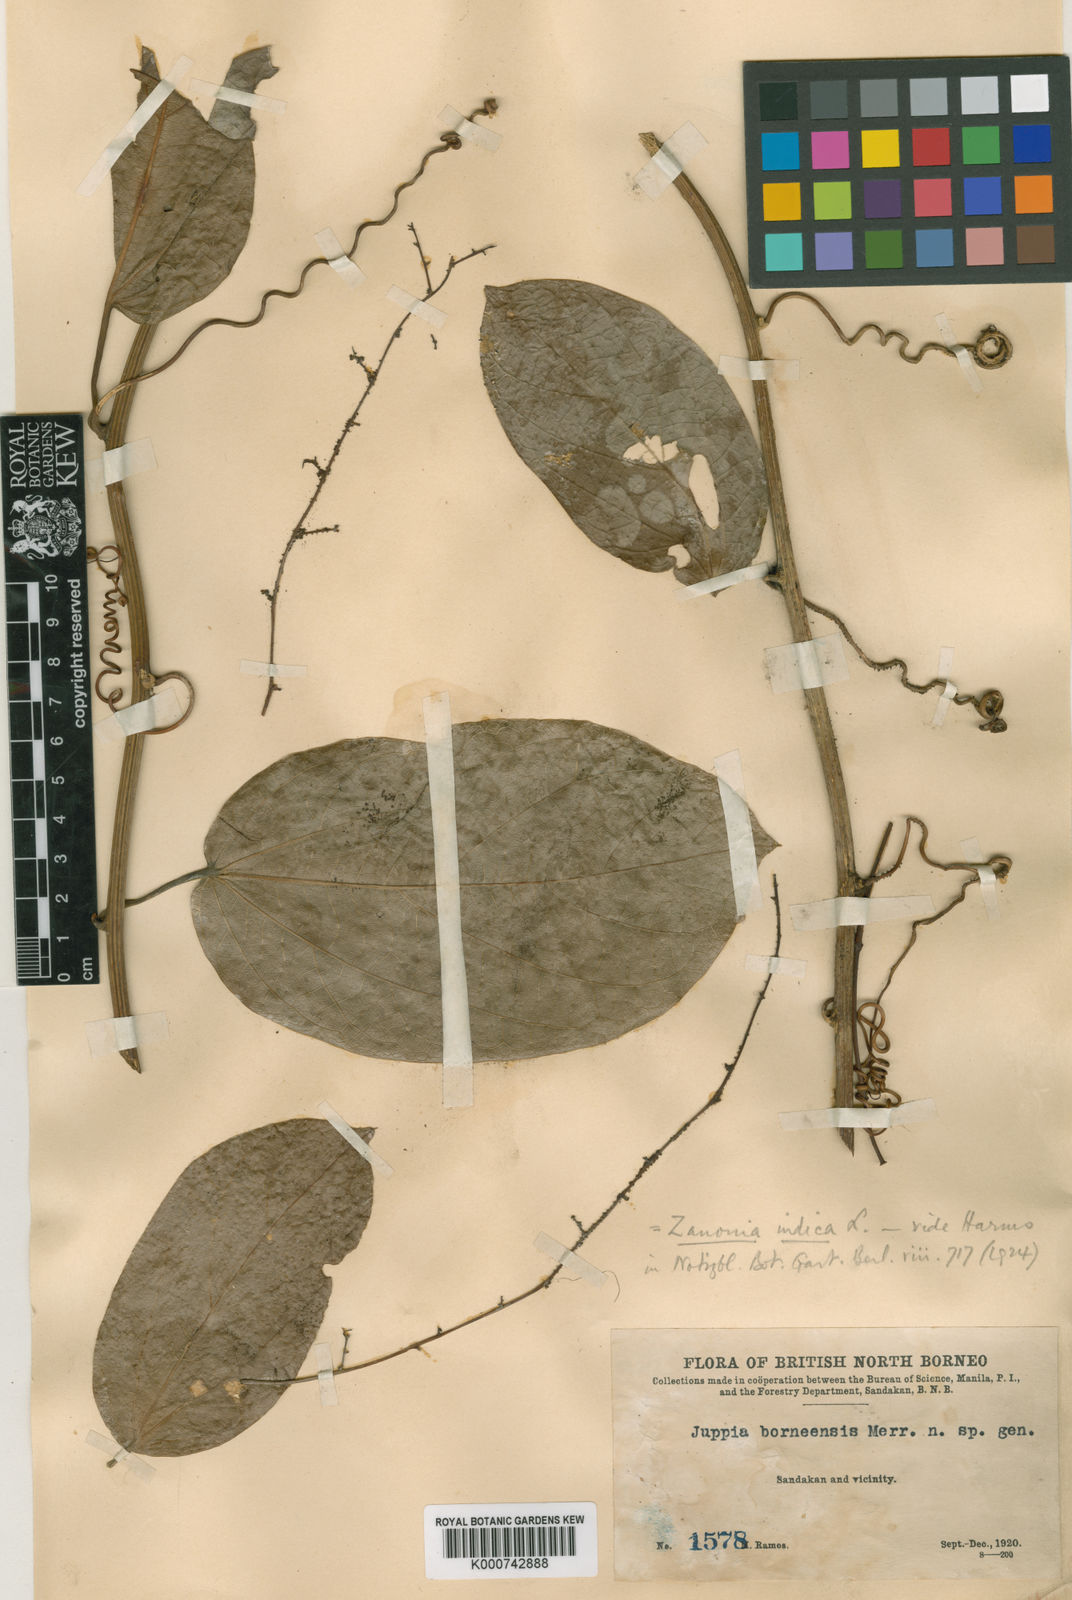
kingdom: Plantae
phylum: Tracheophyta
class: Magnoliopsida
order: Cucurbitales
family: Cucurbitaceae
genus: Zanonia
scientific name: Zanonia indica
